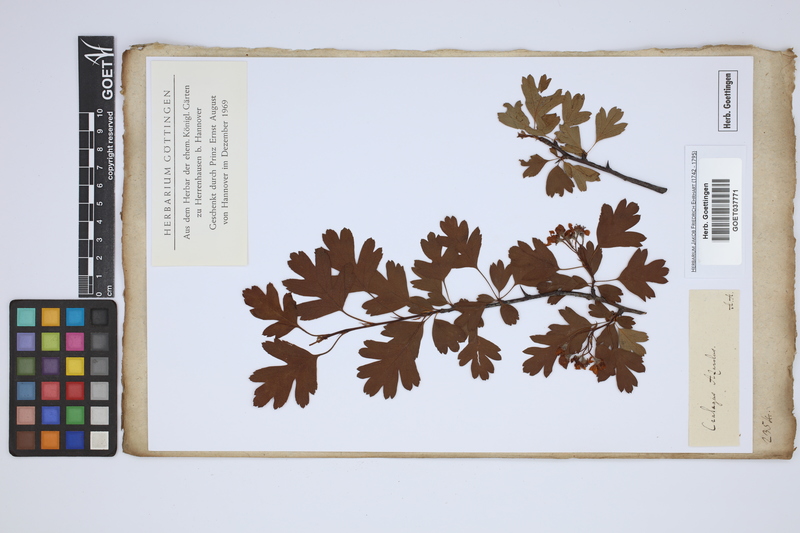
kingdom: Plantae
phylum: Tracheophyta
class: Magnoliopsida
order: Rosales
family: Rosaceae
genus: Crataegus
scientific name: Crataegus azarolus
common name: Azarole
